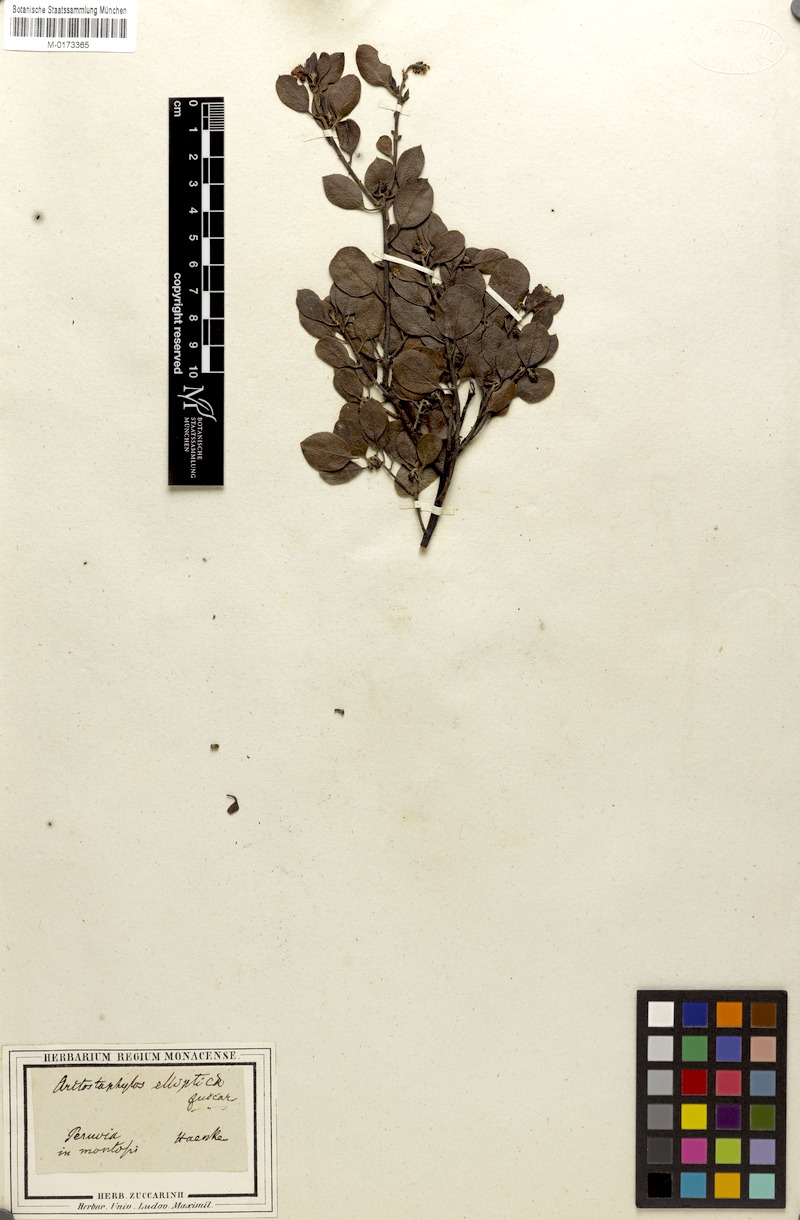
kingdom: Plantae
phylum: Tracheophyta
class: Magnoliopsida
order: Ericales
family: Ericaceae
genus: Arctostaphylos
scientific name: Arctostaphylos elliptica
